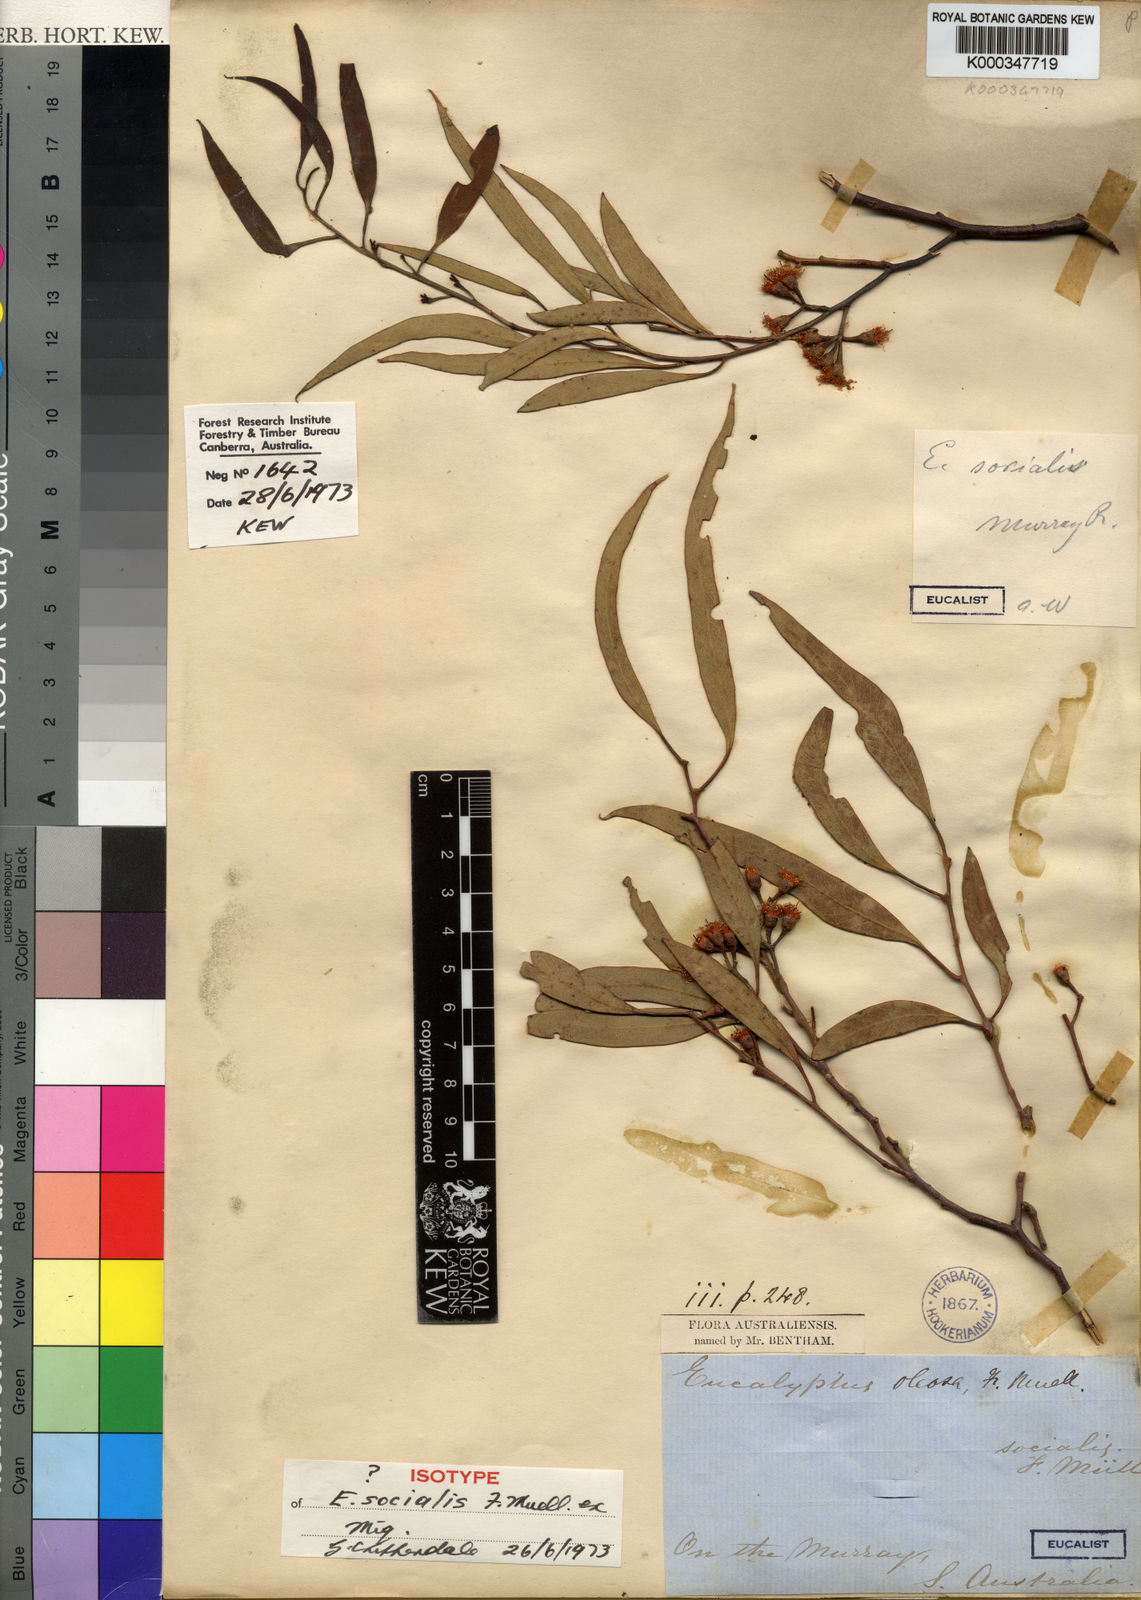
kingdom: Plantae
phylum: Tracheophyta
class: Magnoliopsida
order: Myrtales
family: Myrtaceae
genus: Eucalyptus
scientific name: Eucalyptus socialis
